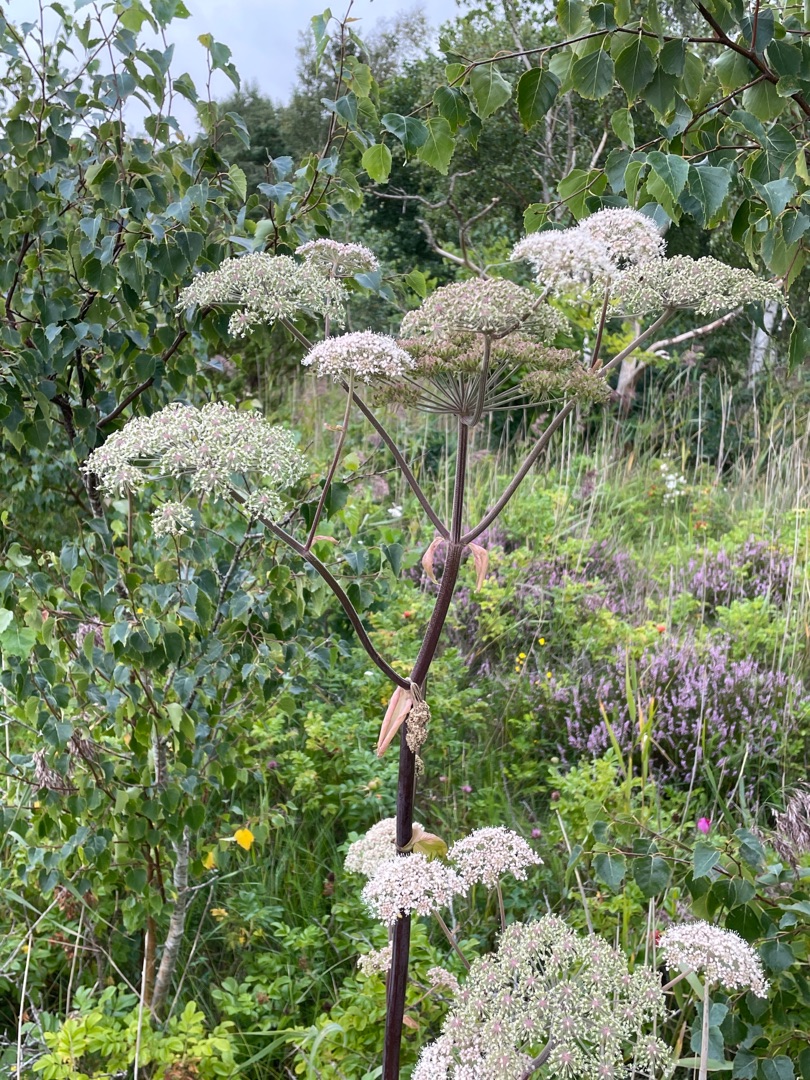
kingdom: Plantae
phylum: Tracheophyta
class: Magnoliopsida
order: Apiales
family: Apiaceae
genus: Angelica
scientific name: Angelica sylvestris
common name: Angelik
